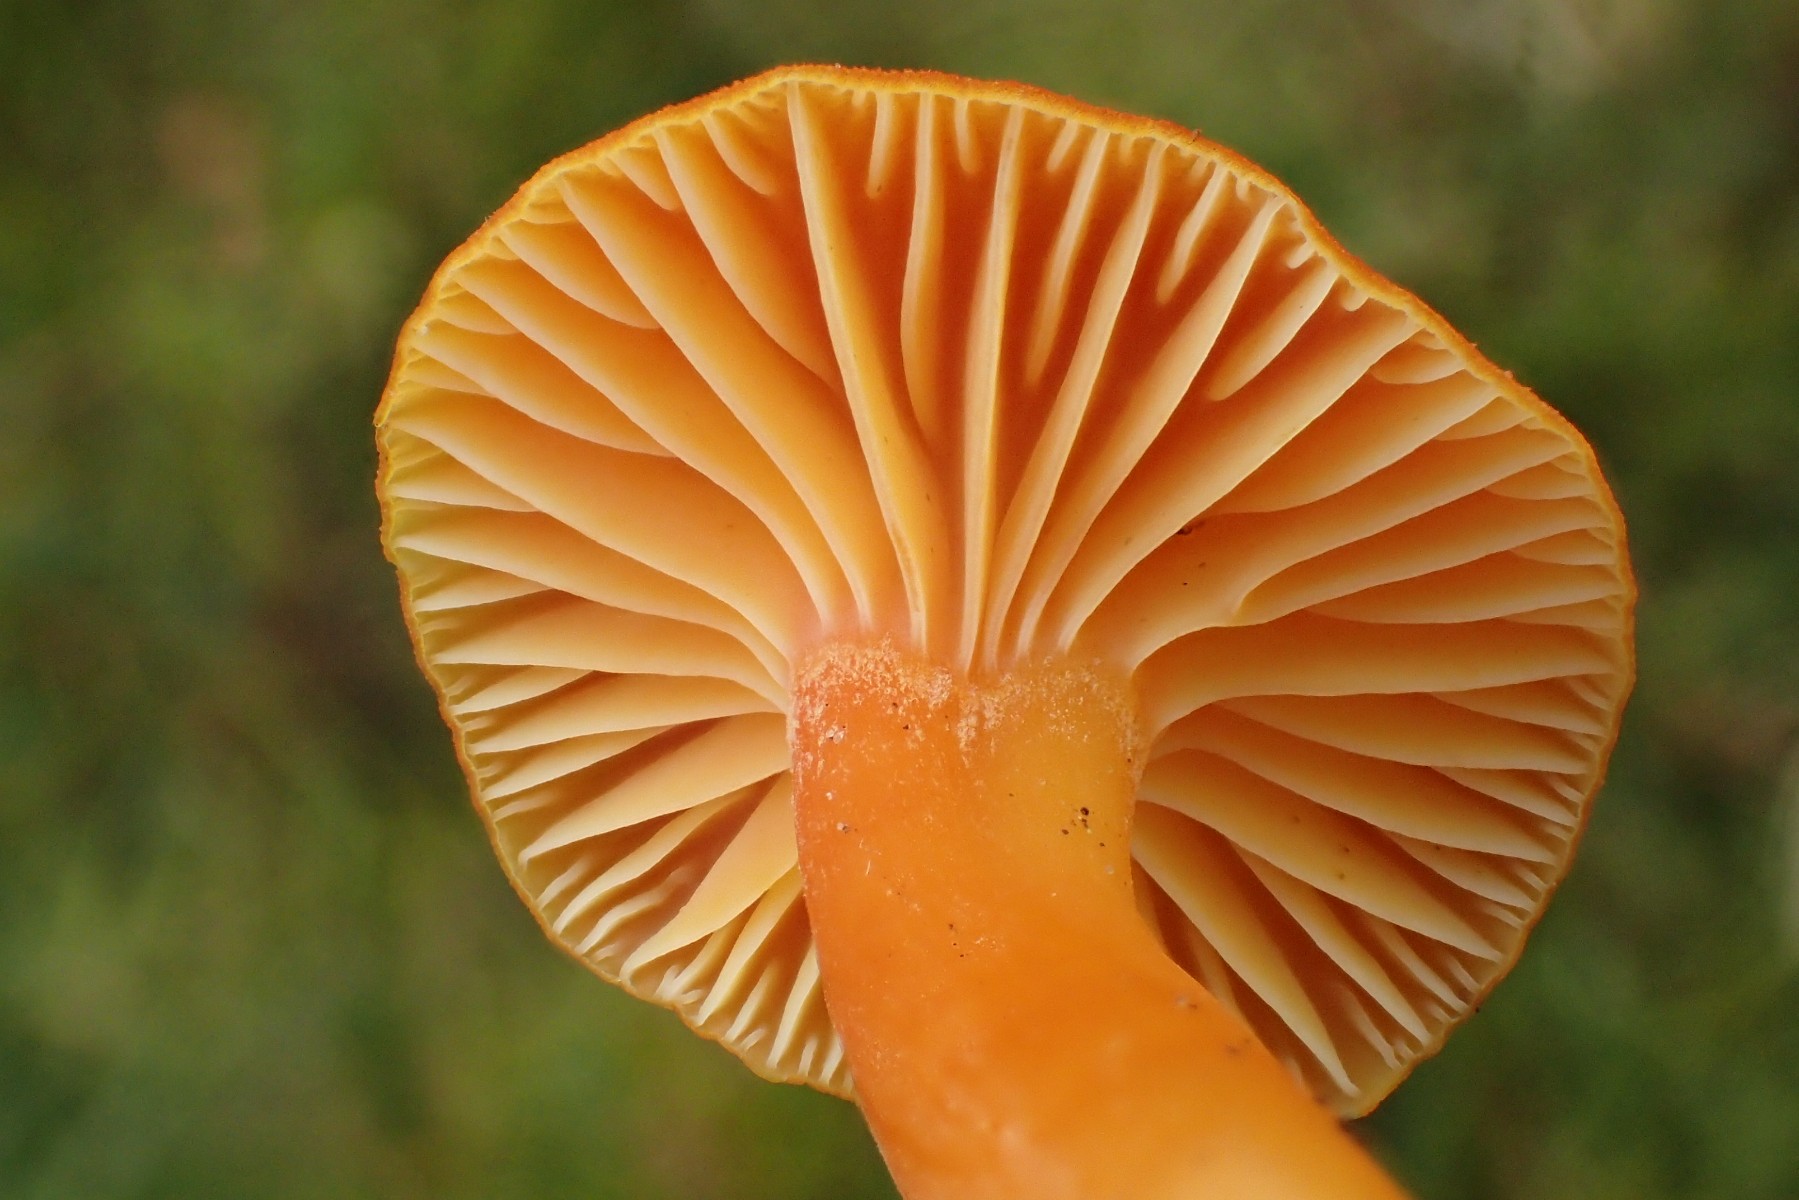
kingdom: Fungi
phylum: Basidiomycota
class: Agaricomycetes
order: Agaricales
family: Hygrophoraceae
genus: Hygrocybe
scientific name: Hygrocybe reidii
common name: honning-vokshat
